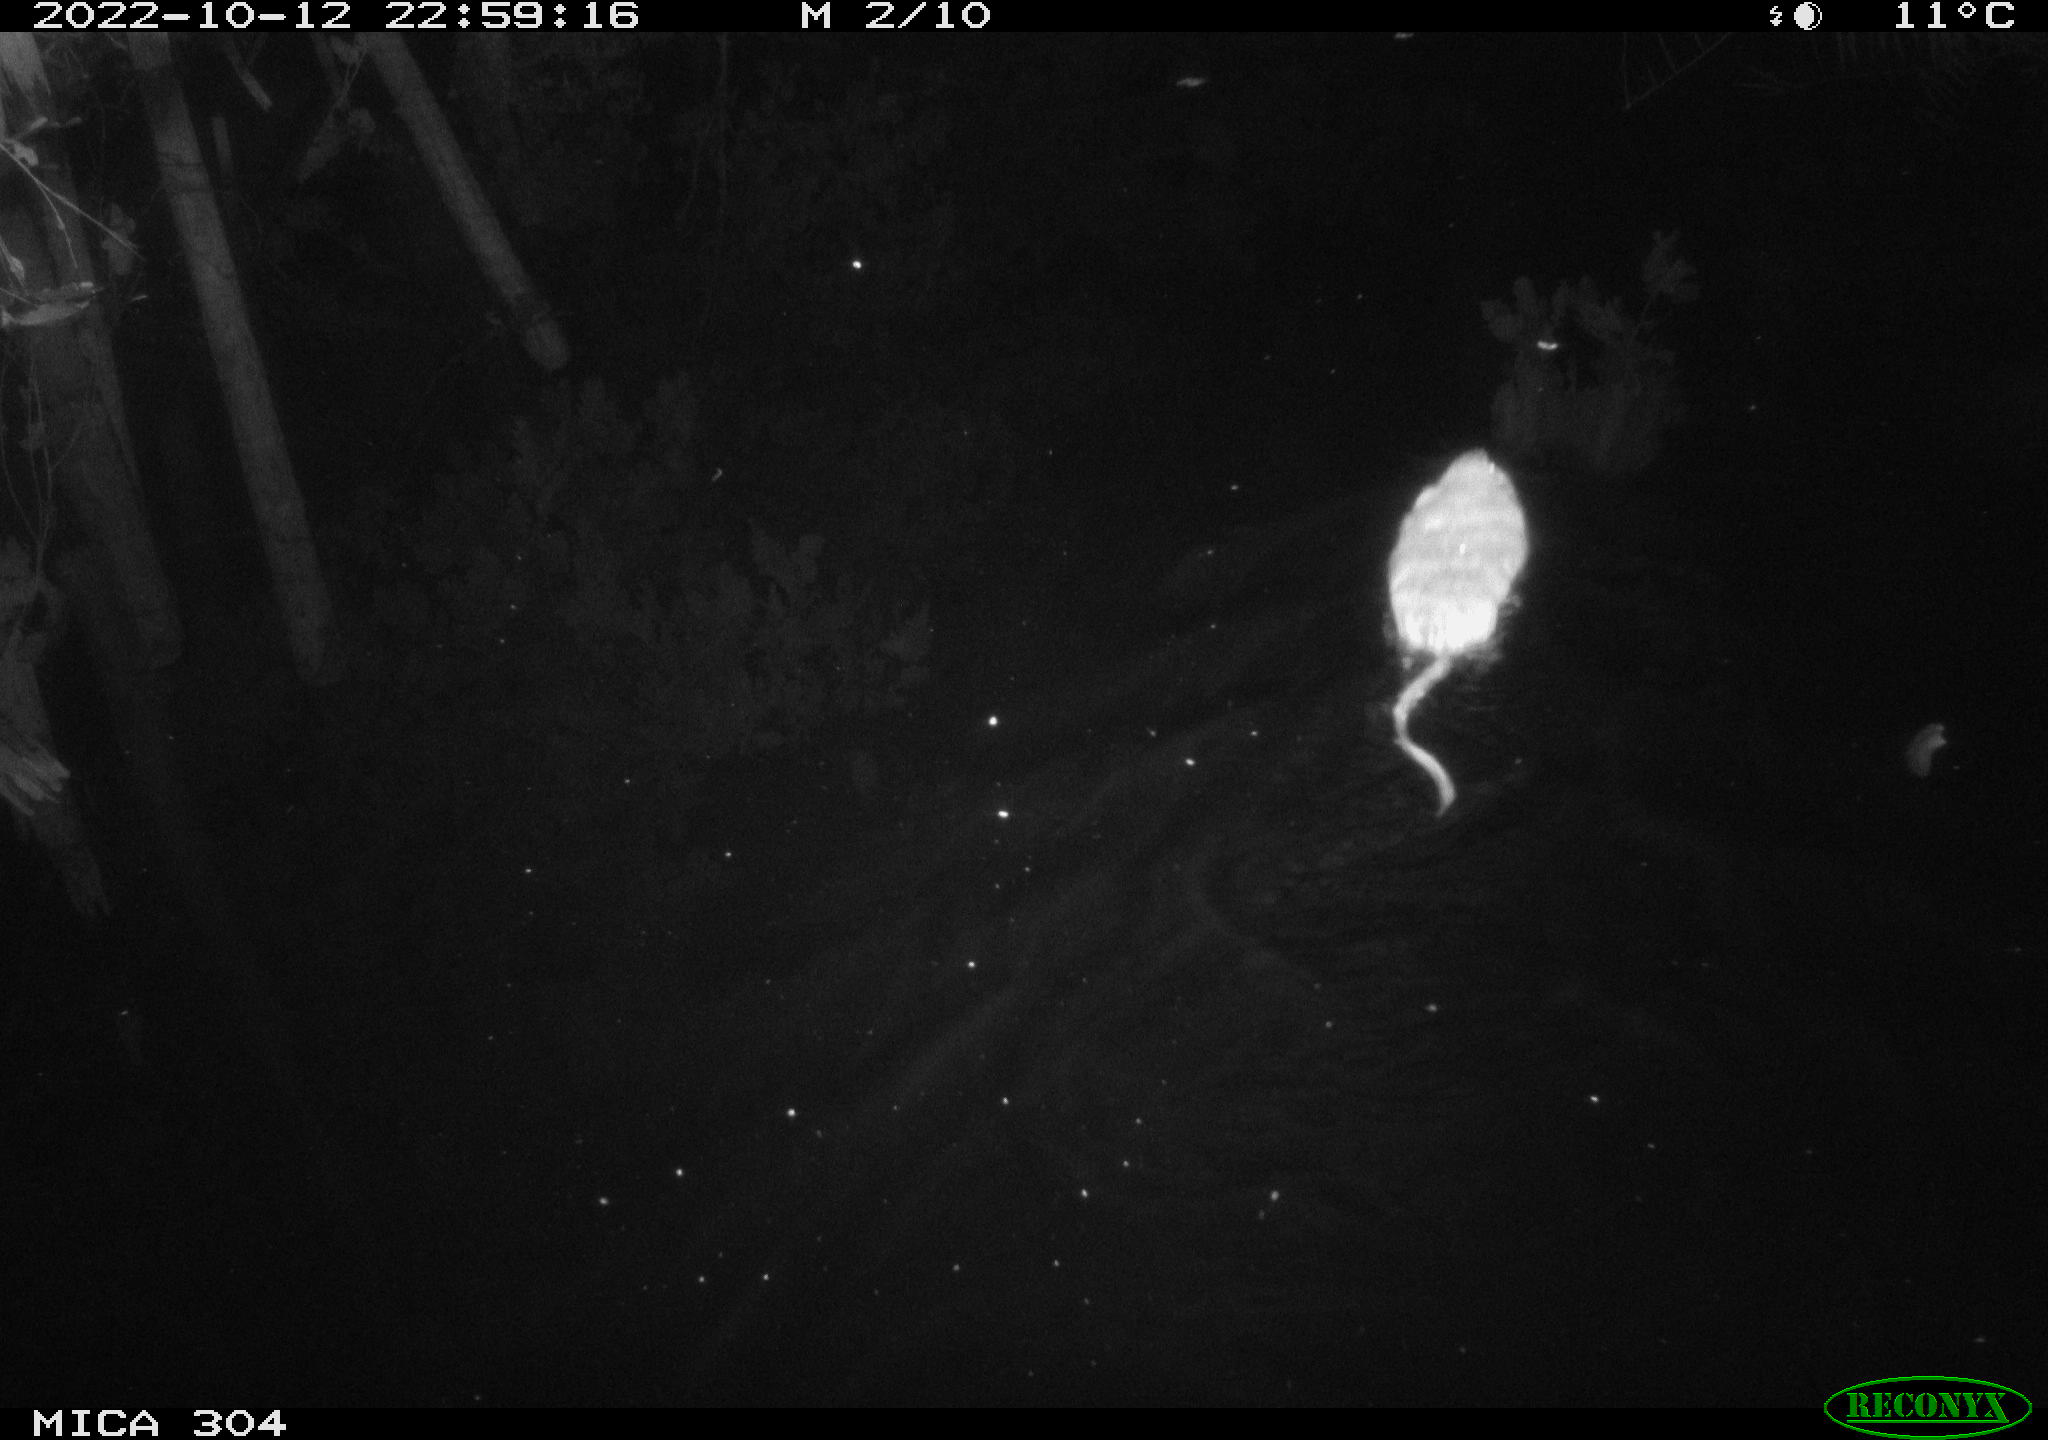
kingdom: Animalia
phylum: Chordata
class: Mammalia
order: Rodentia
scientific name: Rodentia
